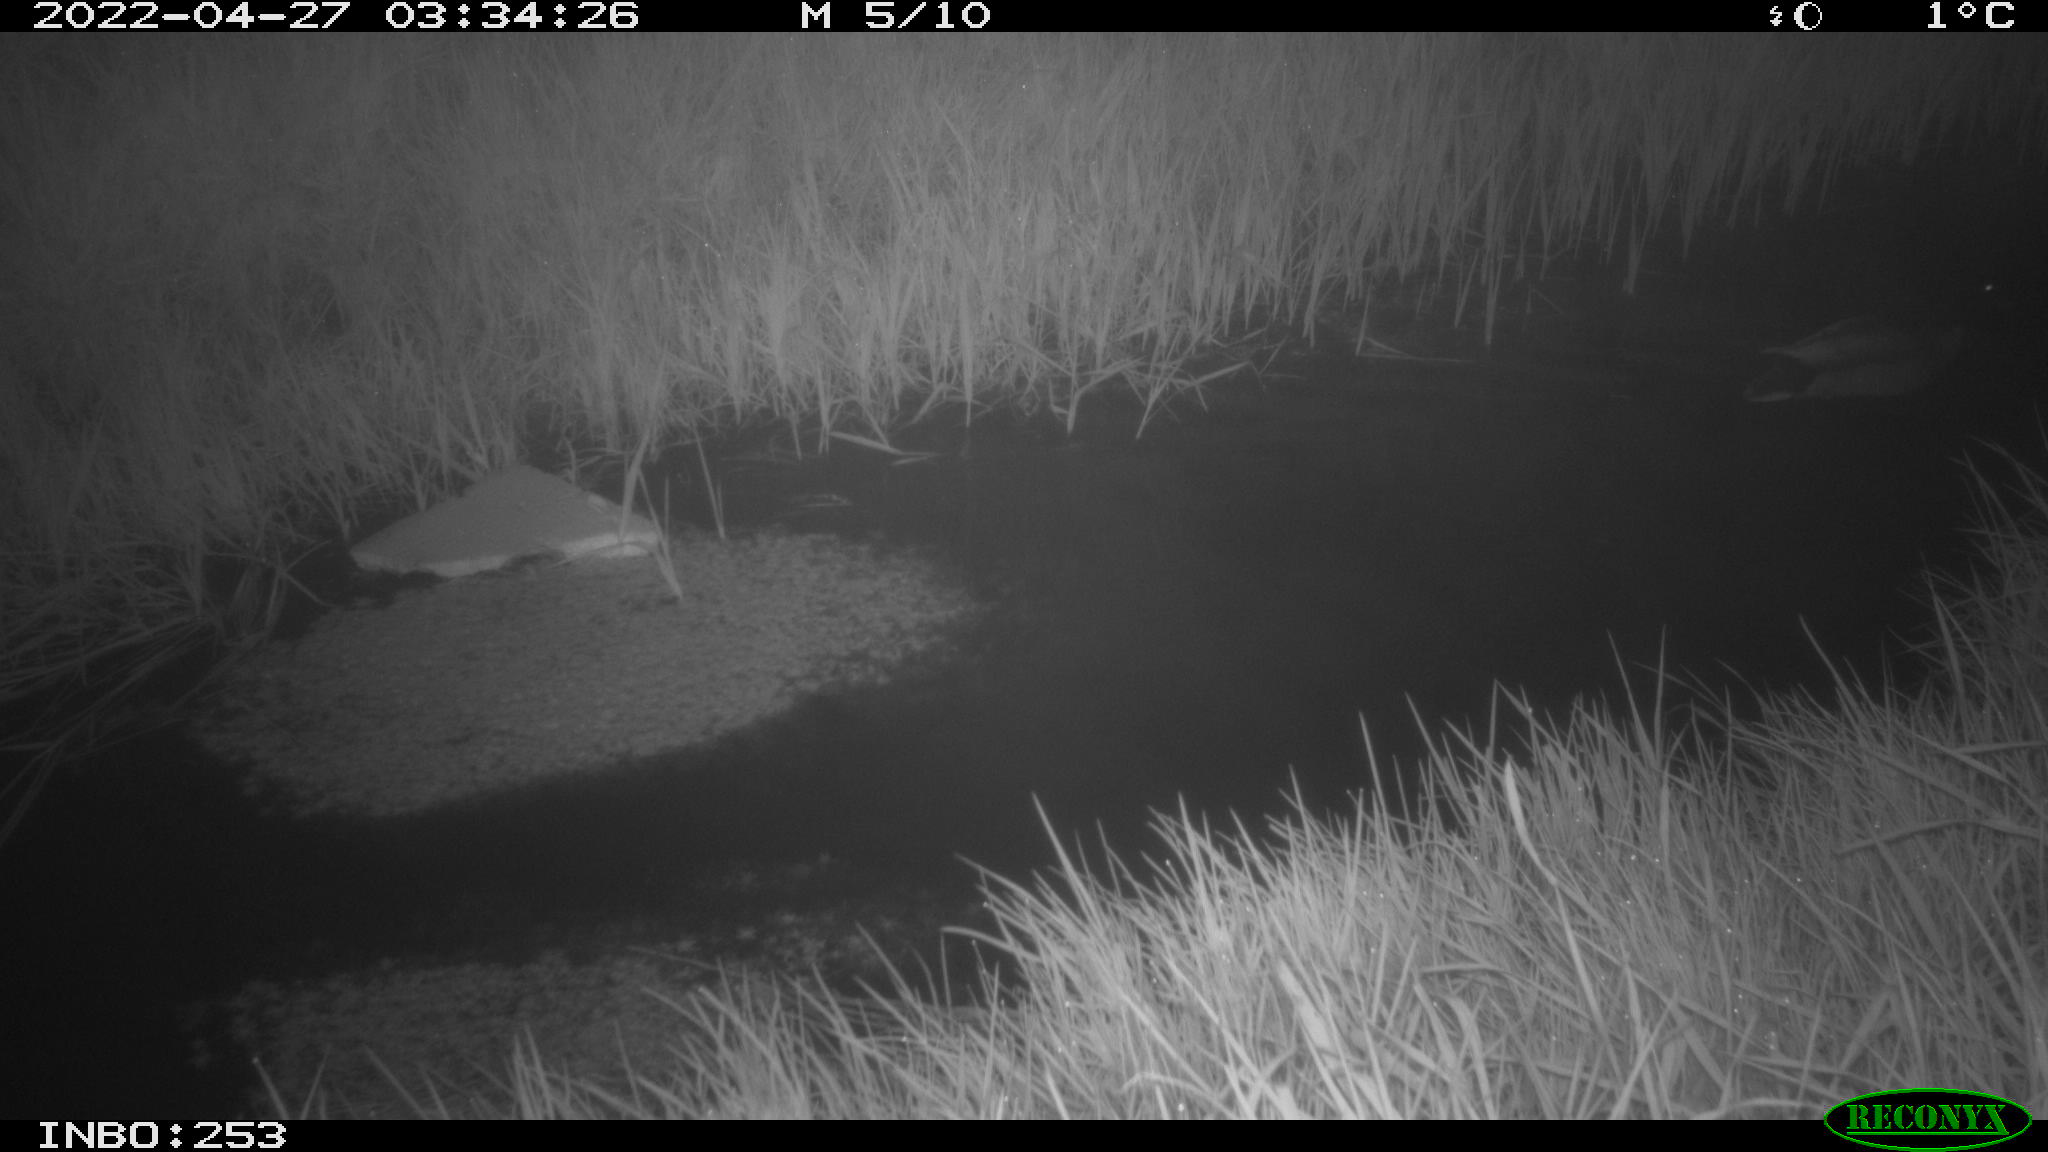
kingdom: Animalia
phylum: Chordata
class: Aves
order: Anseriformes
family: Anatidae
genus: Anas
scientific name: Anas platyrhynchos
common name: Mallard
